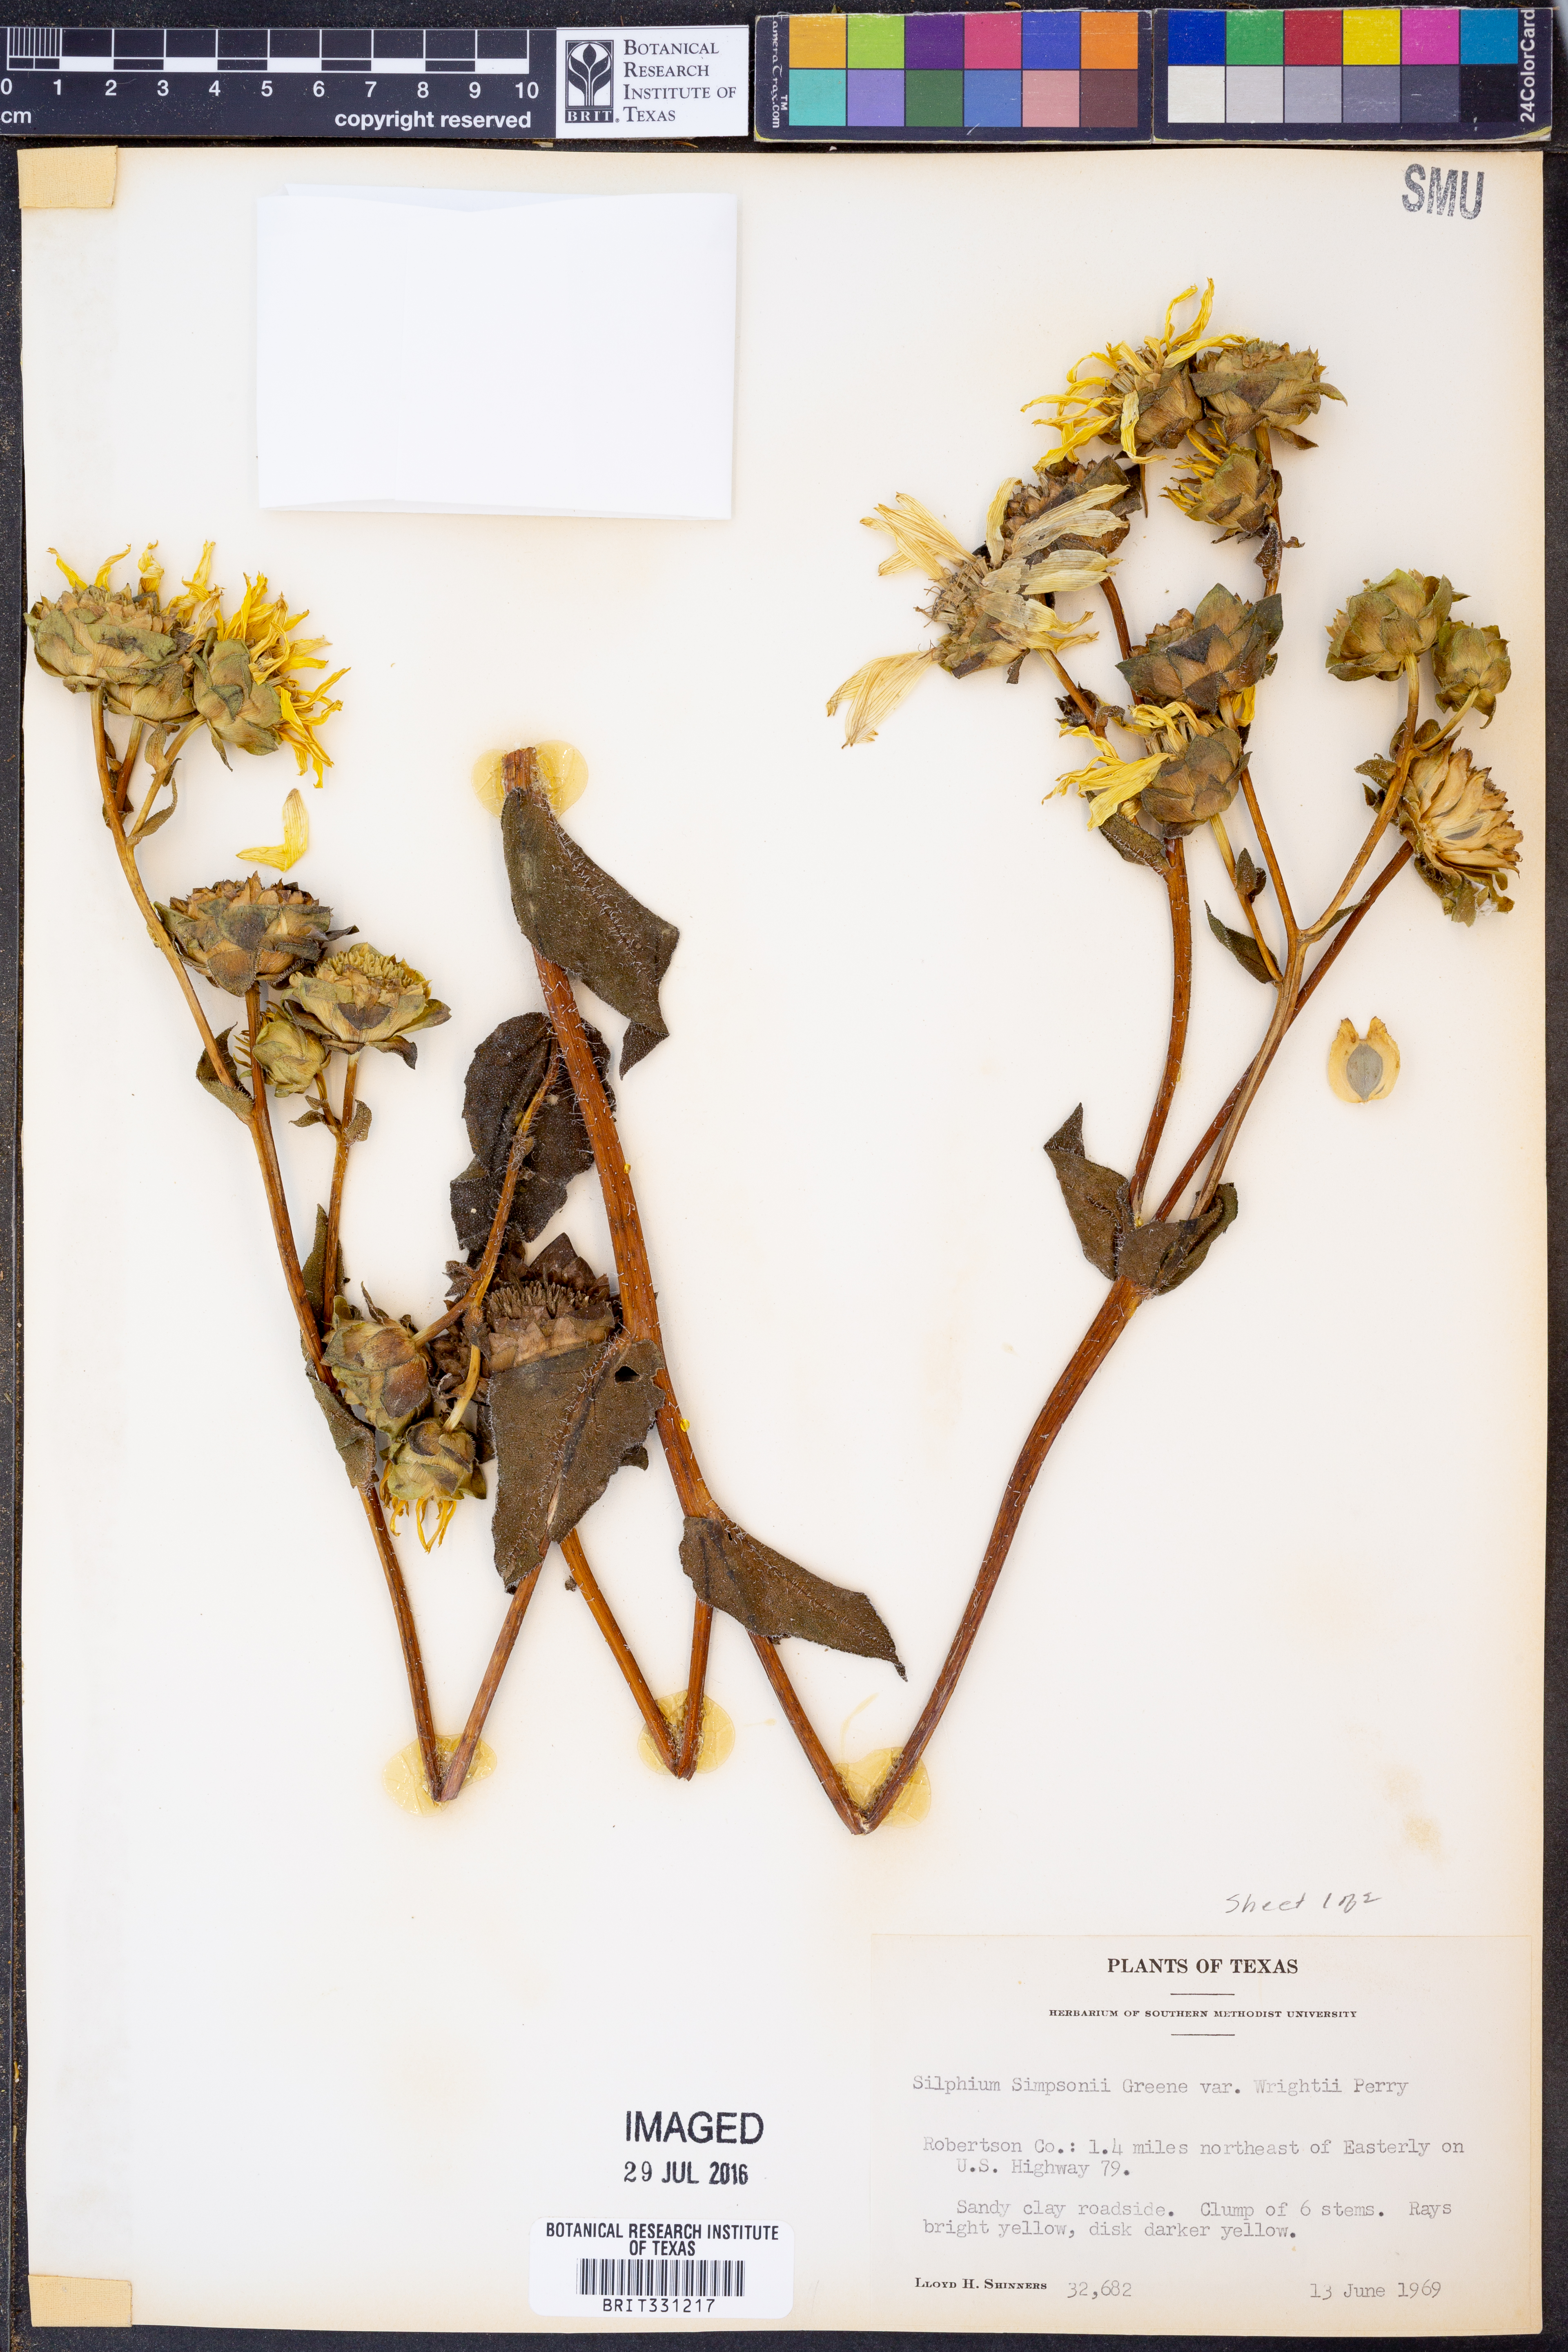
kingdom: Plantae
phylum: Tracheophyta
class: Magnoliopsida
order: Asterales
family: Asteraceae
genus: Silphium
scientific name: Silphium radula
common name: Roughleaf rosinweed
